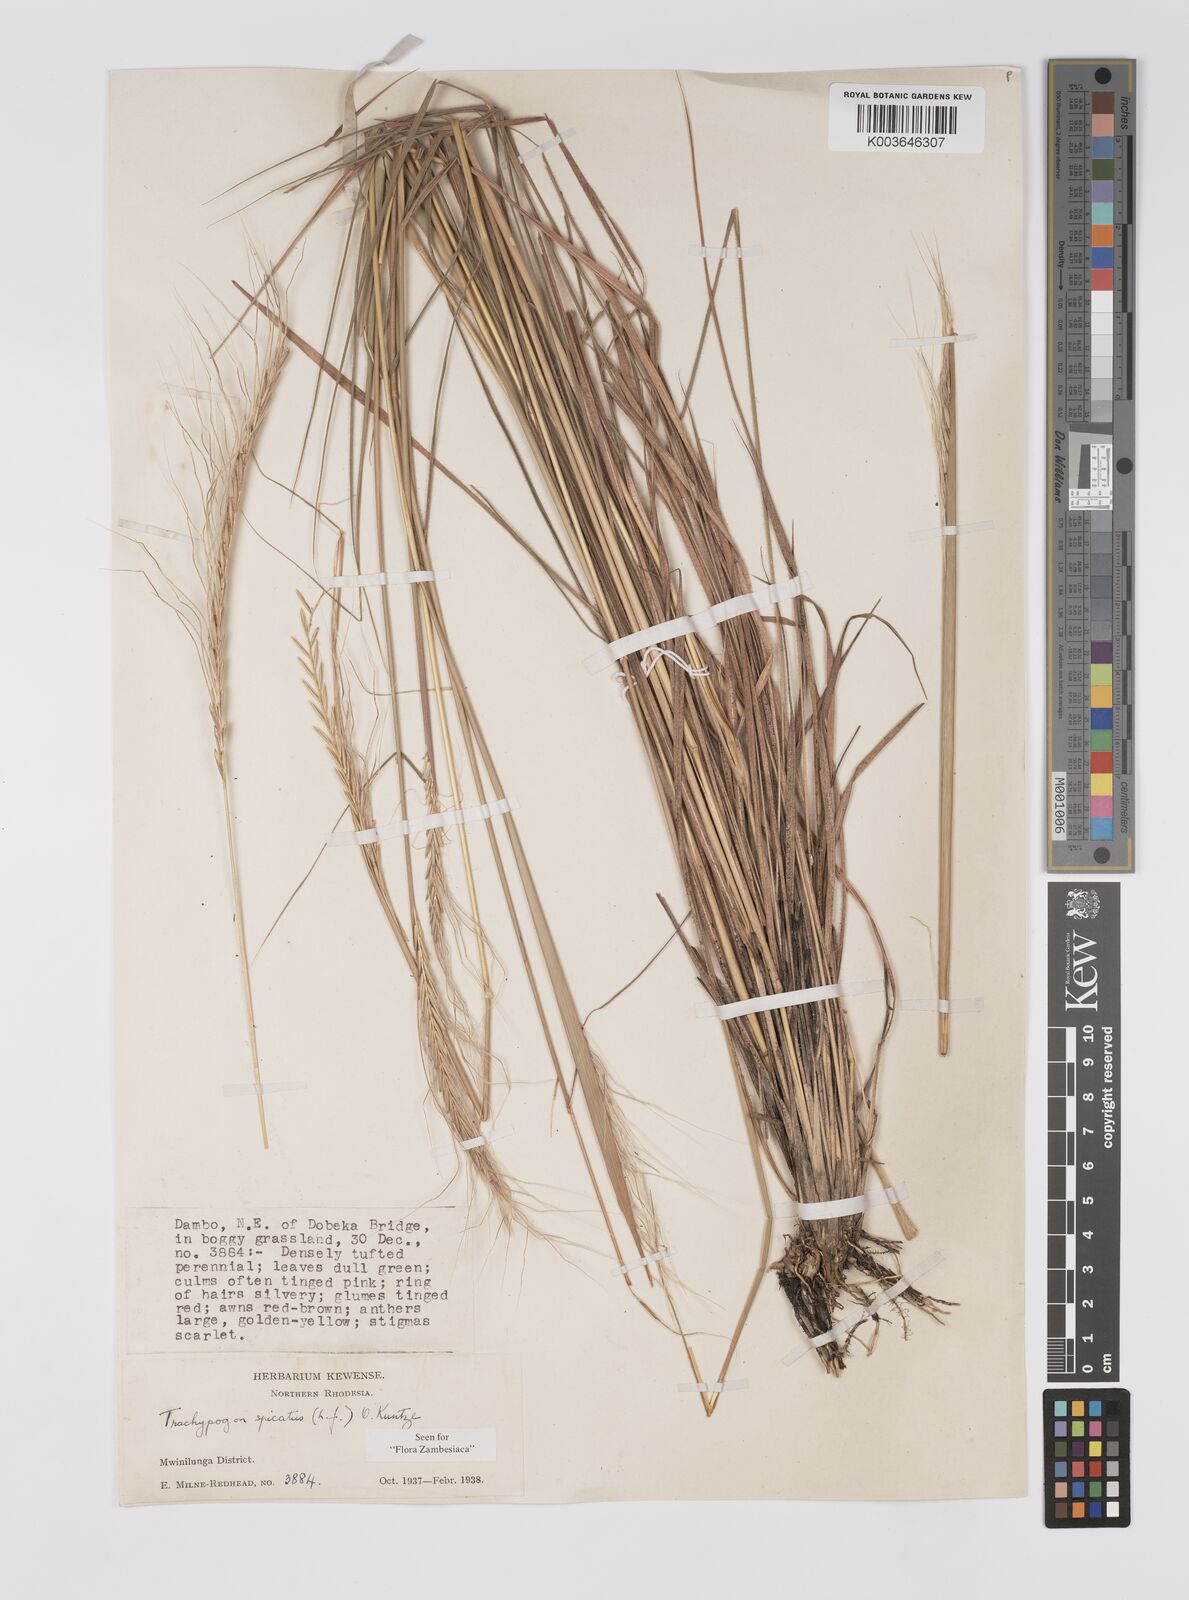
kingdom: Plantae
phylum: Tracheophyta
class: Liliopsida
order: Poales
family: Poaceae
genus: Trachypogon
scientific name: Trachypogon spicatus
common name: Crinkle-awn
